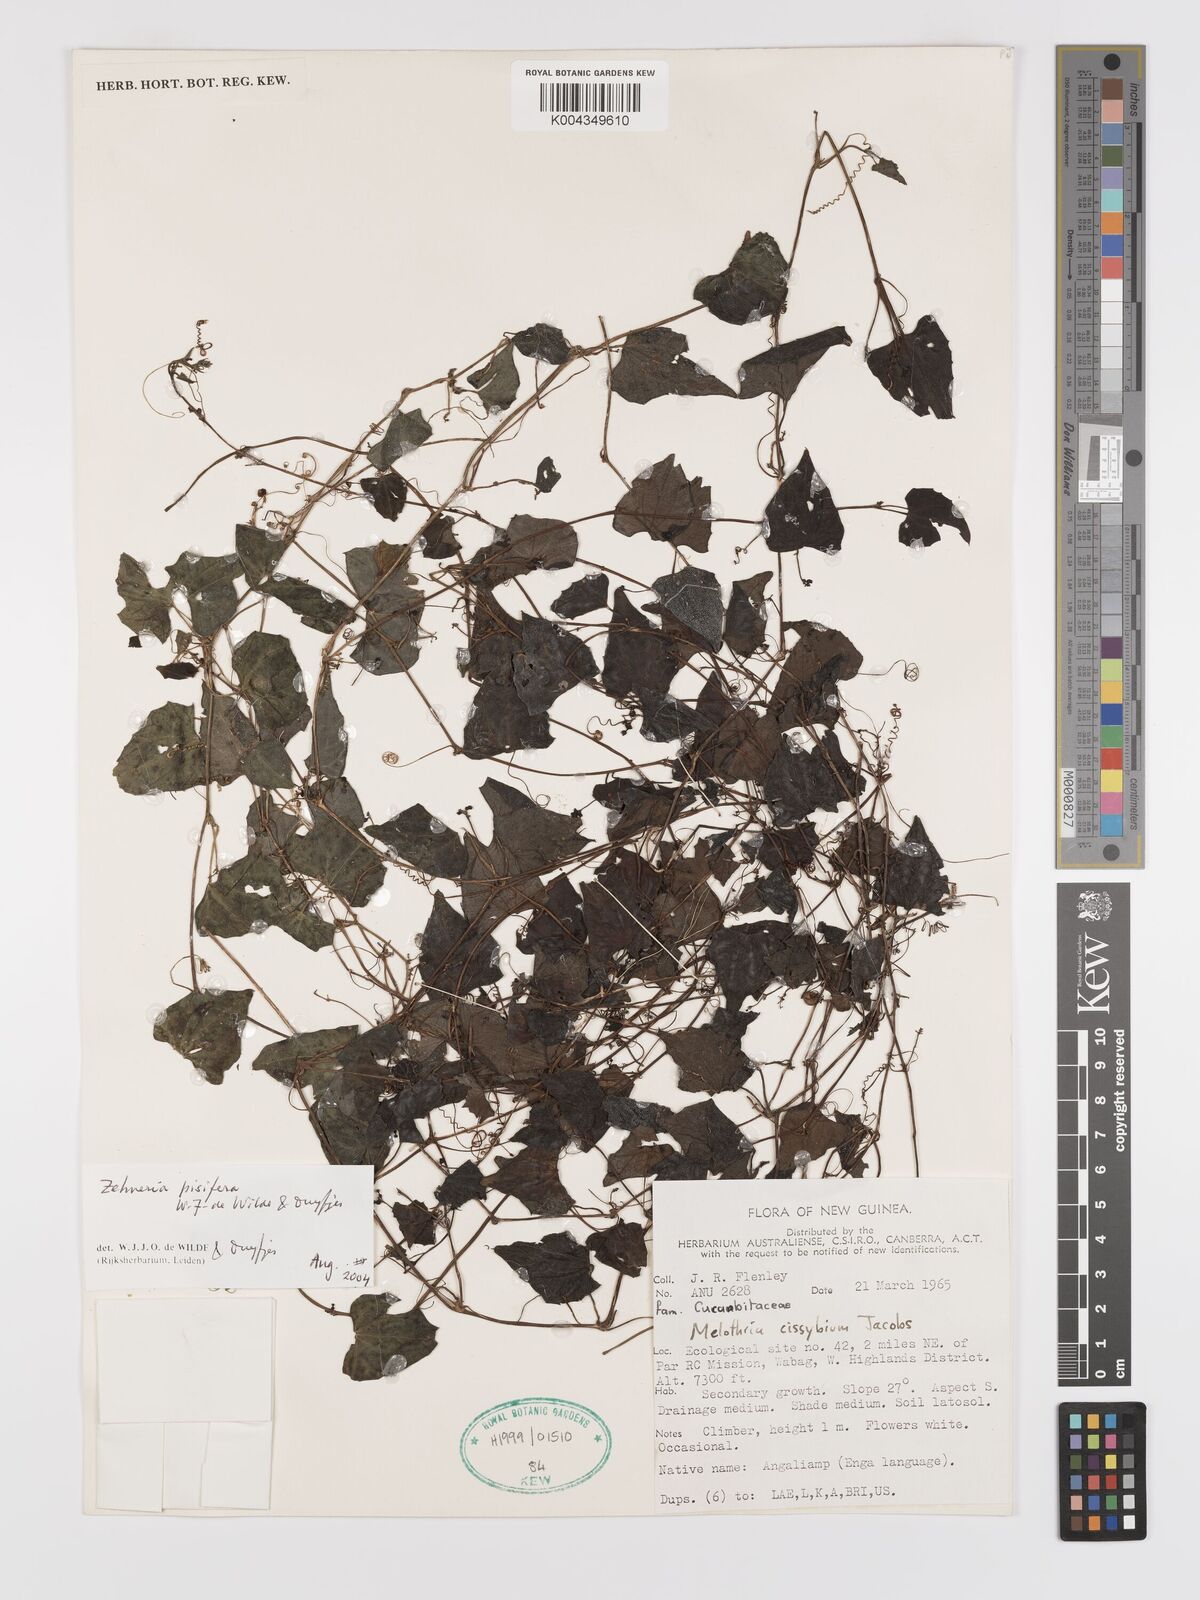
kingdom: Plantae
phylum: Tracheophyta
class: Magnoliopsida
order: Cucurbitales
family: Cucurbitaceae
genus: Zehneria
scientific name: Zehneria pisifera
